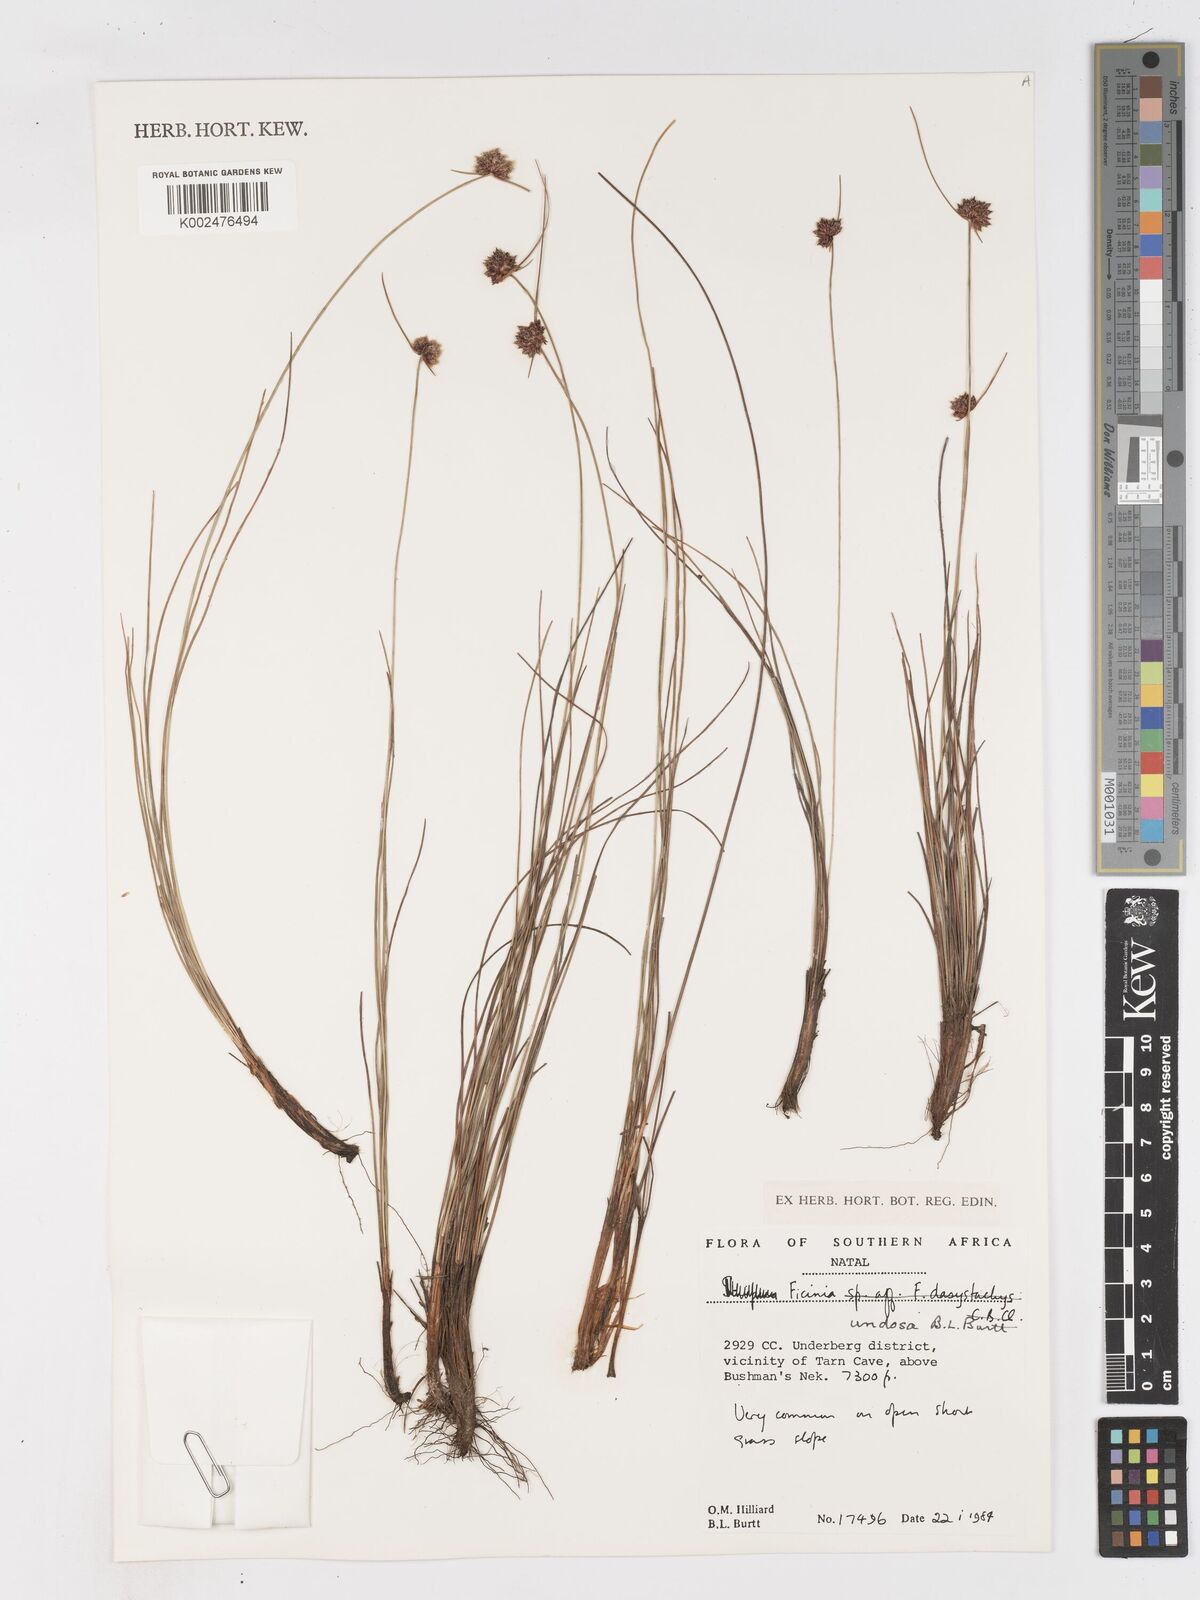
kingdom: Plantae
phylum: Tracheophyta
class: Liliopsida
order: Poales
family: Cyperaceae
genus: Ficinia
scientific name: Ficinia undosa
